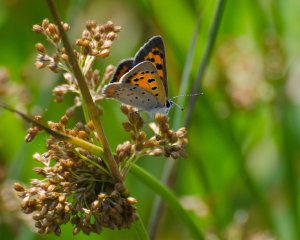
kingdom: Animalia
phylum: Arthropoda
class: Insecta
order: Lepidoptera
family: Lycaenidae
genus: Lycaena
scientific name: Lycaena phlaeas
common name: American Copper
